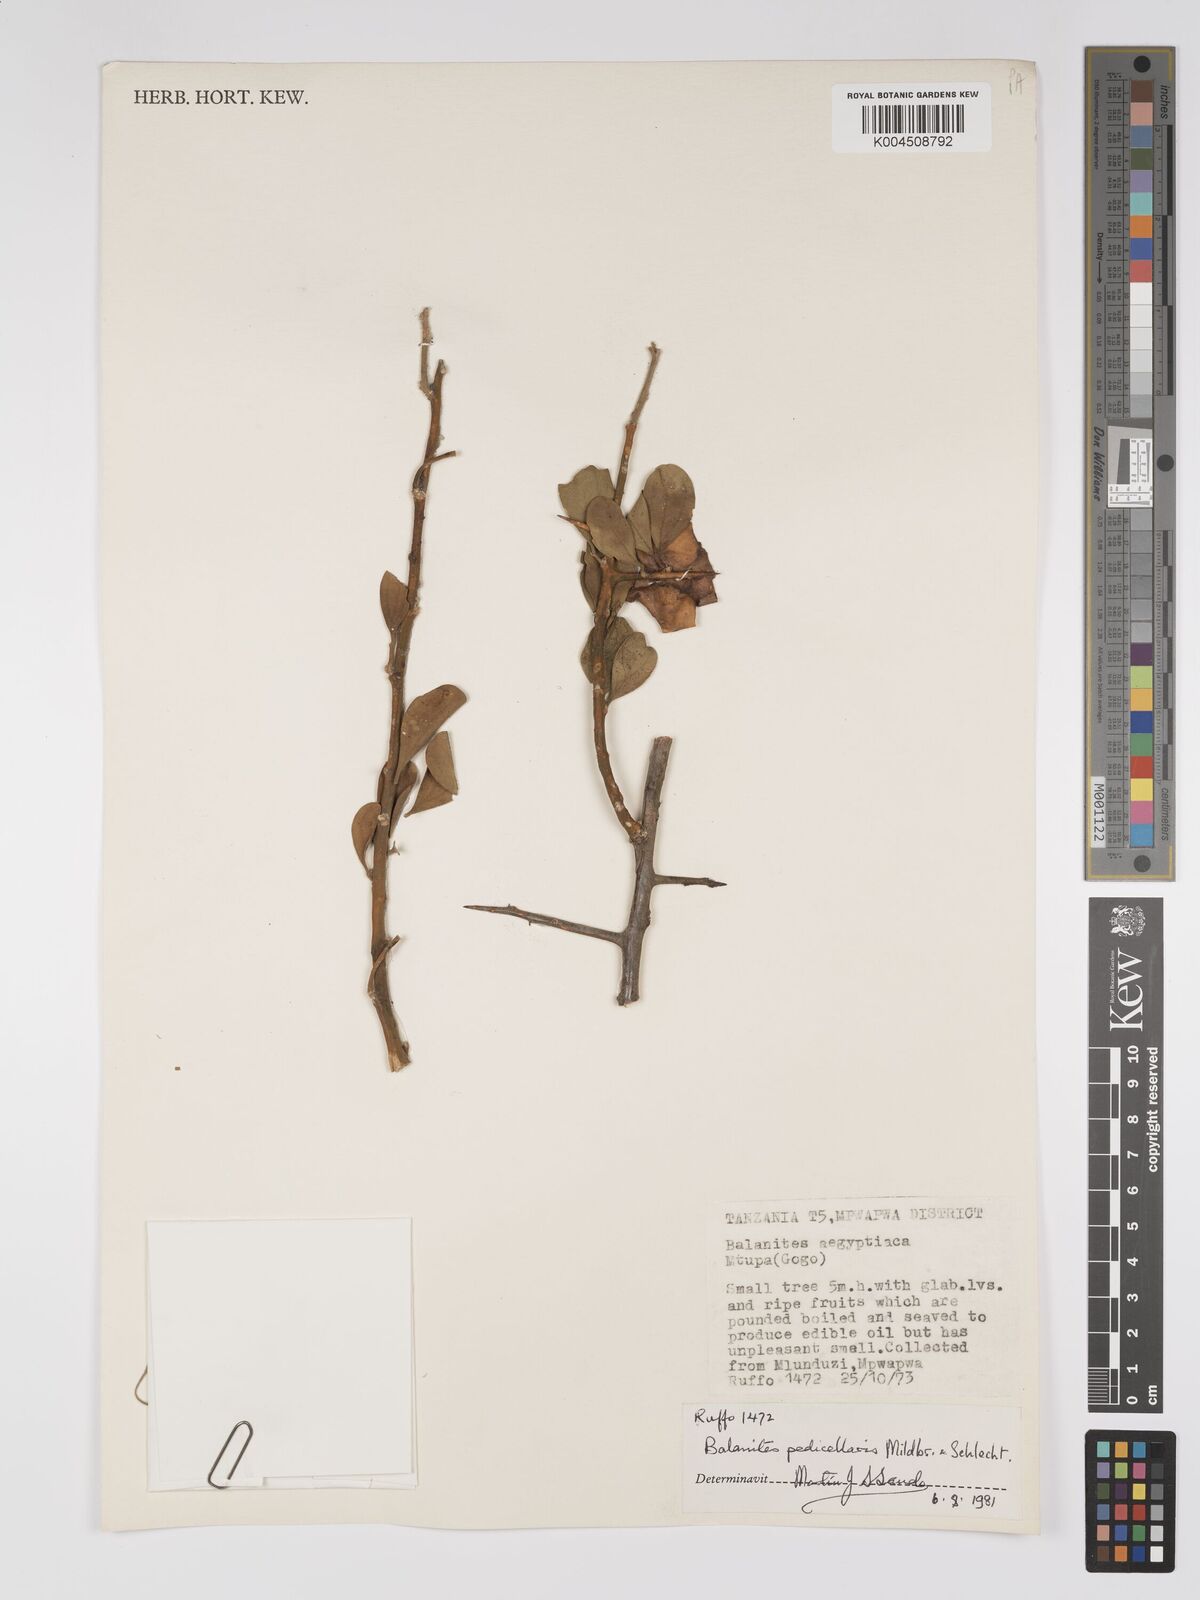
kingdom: Plantae
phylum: Tracheophyta
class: Magnoliopsida
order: Zygophyllales
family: Zygophyllaceae
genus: Balanites
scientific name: Balanites pedicellaris
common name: Small green-thorn
